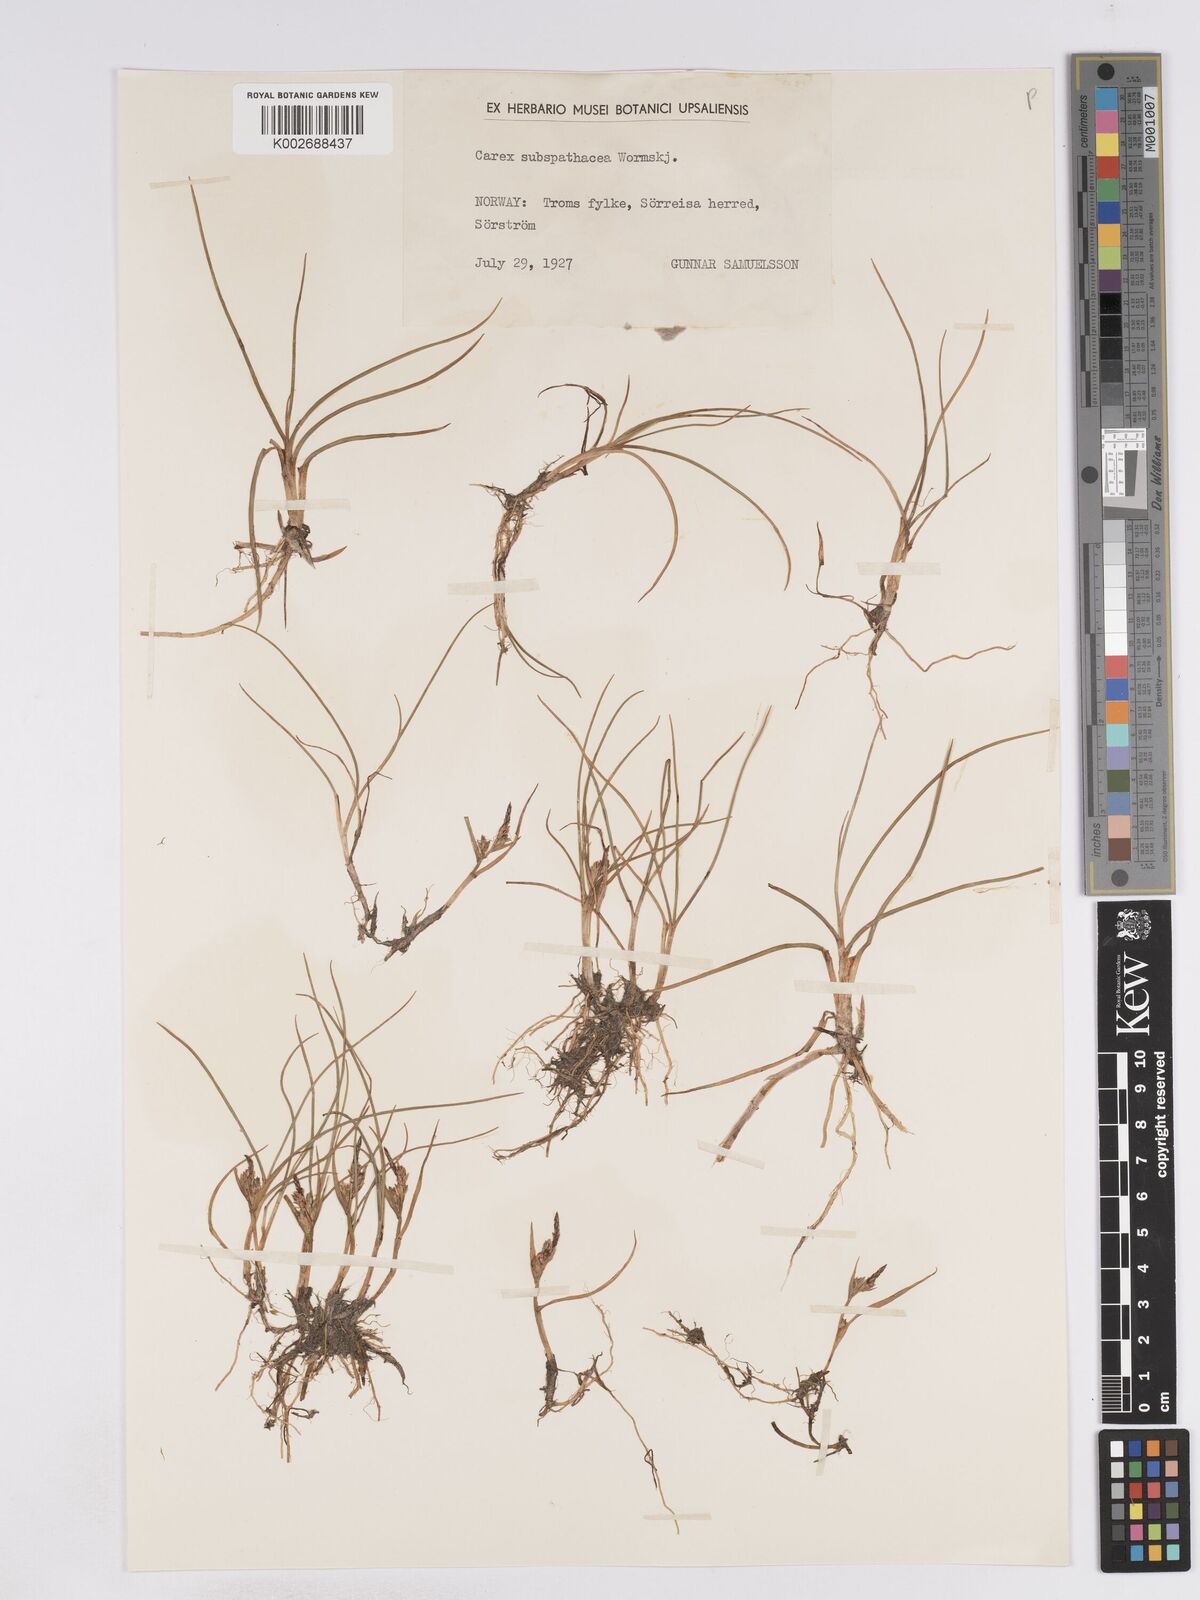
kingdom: Plantae
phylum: Tracheophyta
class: Liliopsida
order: Poales
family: Cyperaceae
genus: Carex
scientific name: Carex subspathacea
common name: Hoppner's sedge
